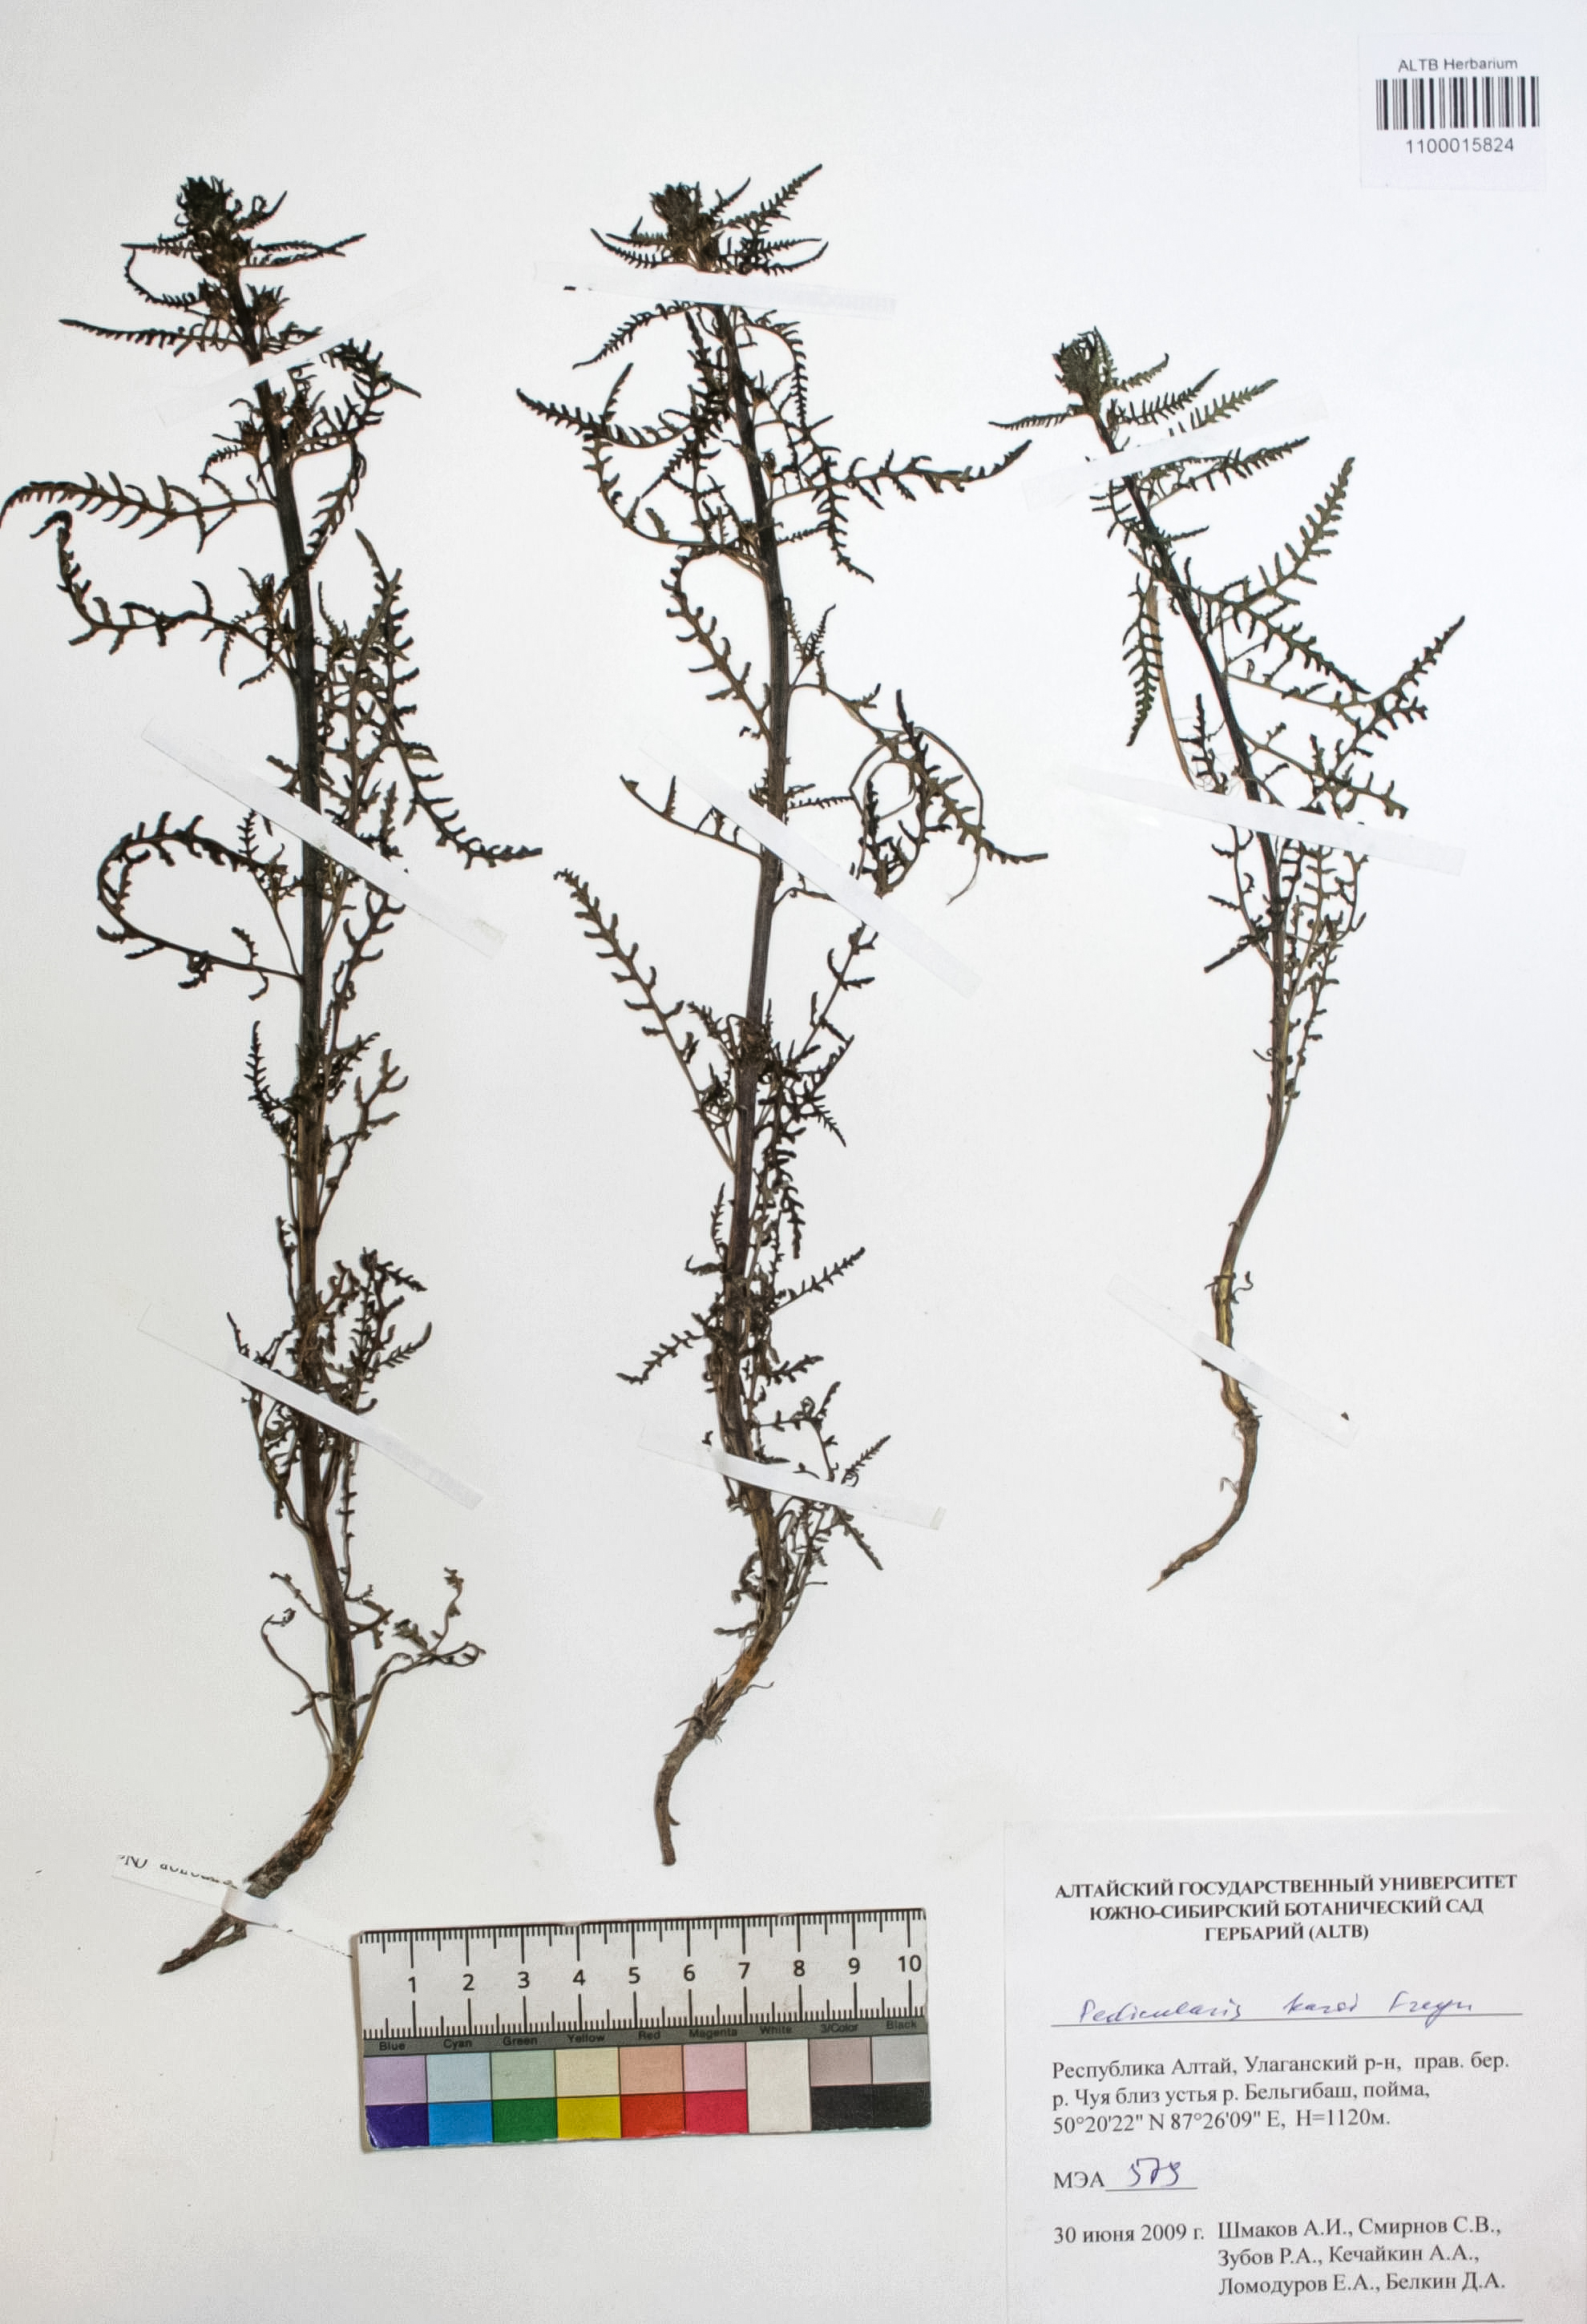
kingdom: Plantae
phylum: Tracheophyta
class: Magnoliopsida
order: Lamiales
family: Orobanchaceae
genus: Pedicularis
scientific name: Pedicularis karoi
